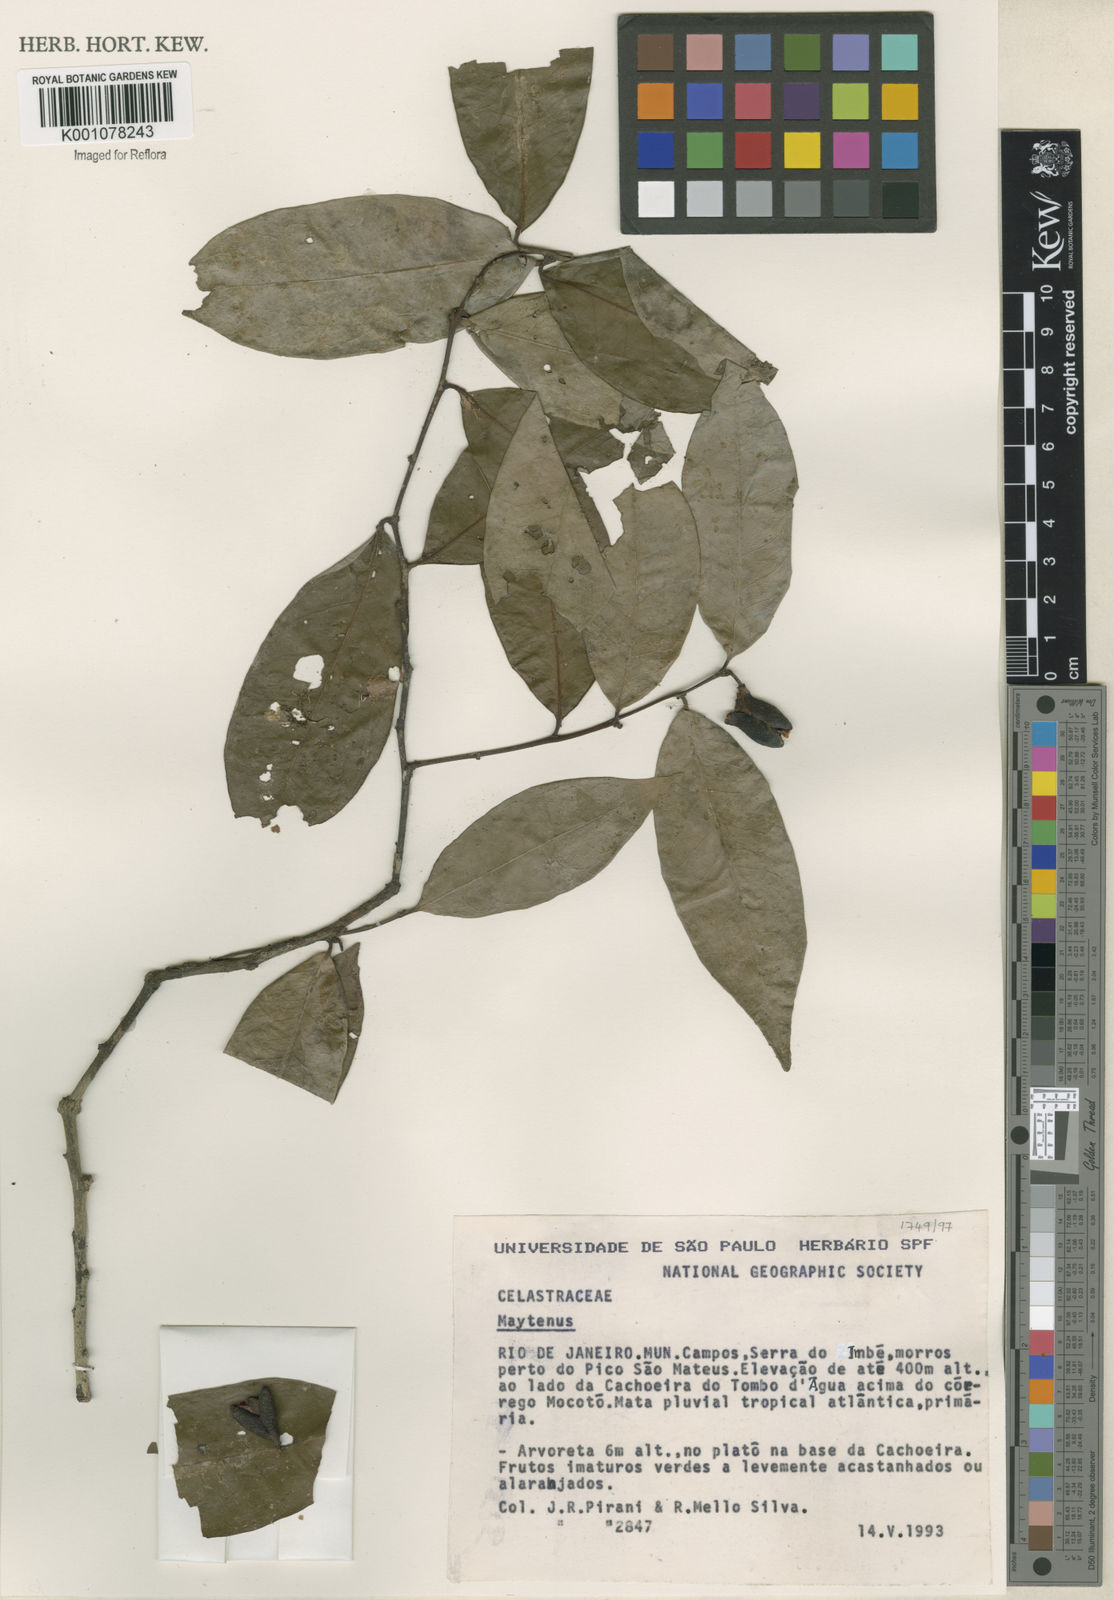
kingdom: Plantae
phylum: Tracheophyta
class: Magnoliopsida
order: Celastrales
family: Celastraceae
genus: Maytenus
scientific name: Maytenus
